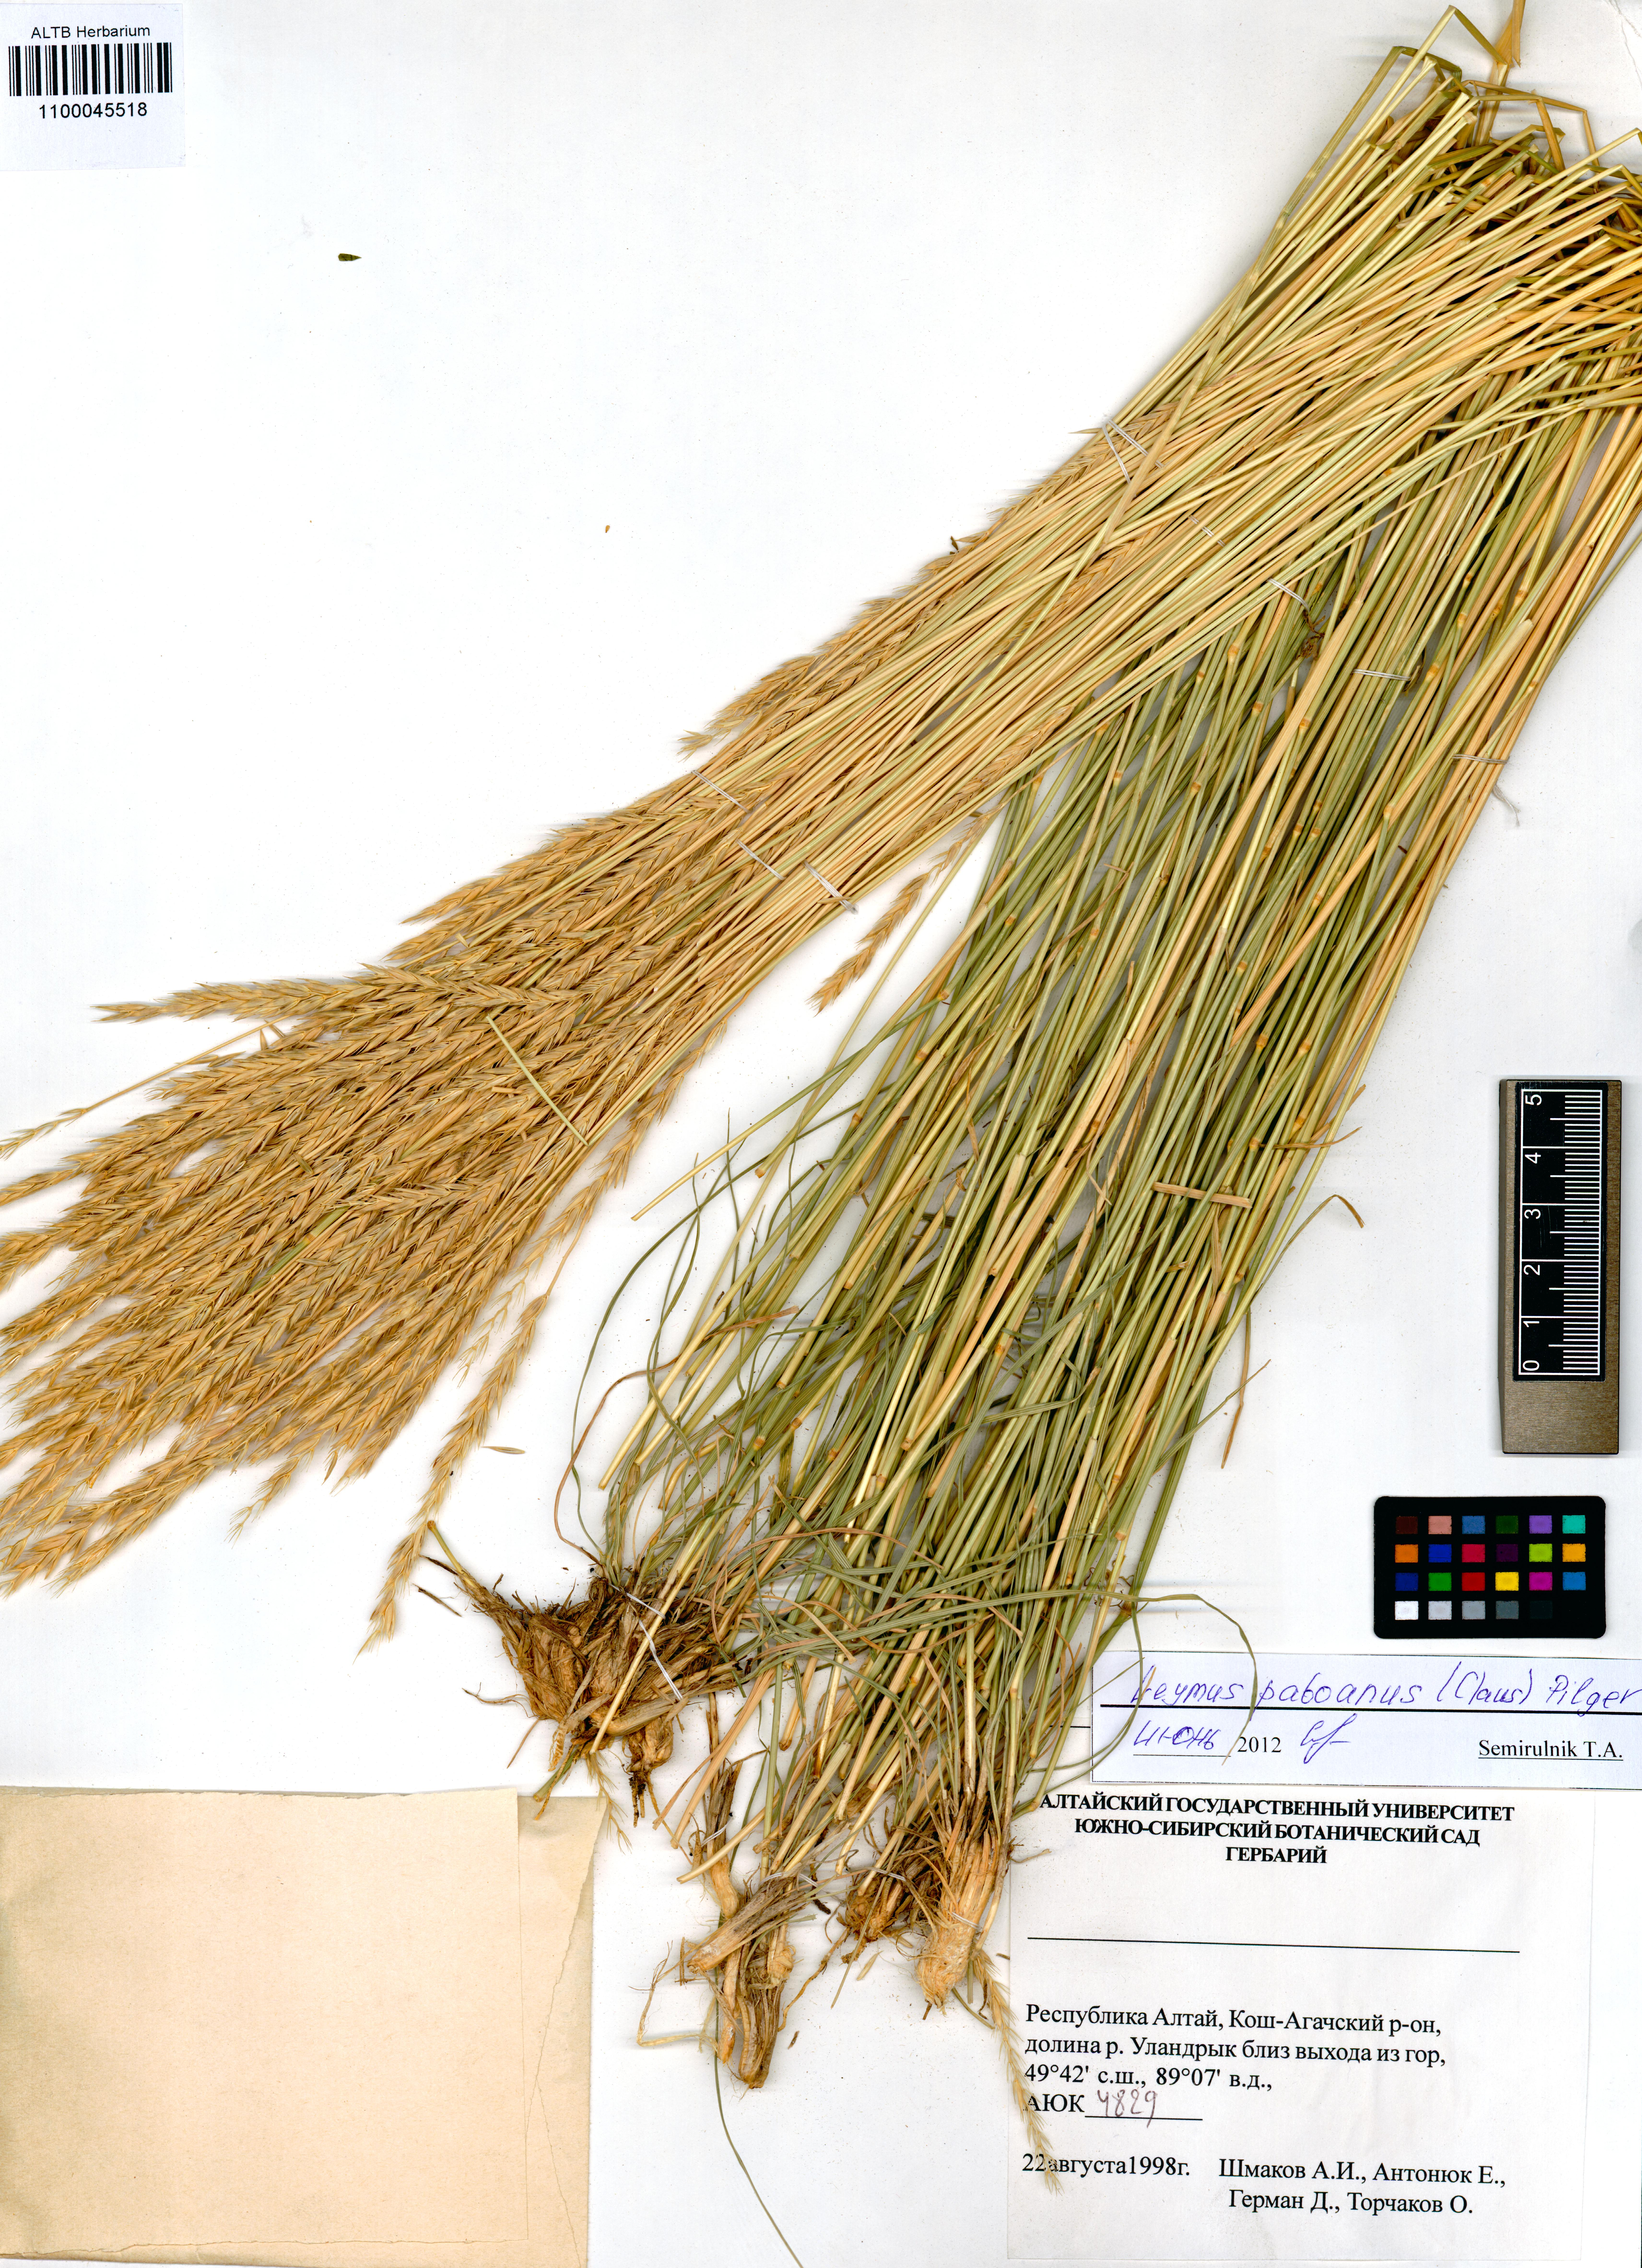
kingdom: Plantae
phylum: Tracheophyta
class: Liliopsida
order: Poales
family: Poaceae
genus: Leymus
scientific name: Leymus paboanus
